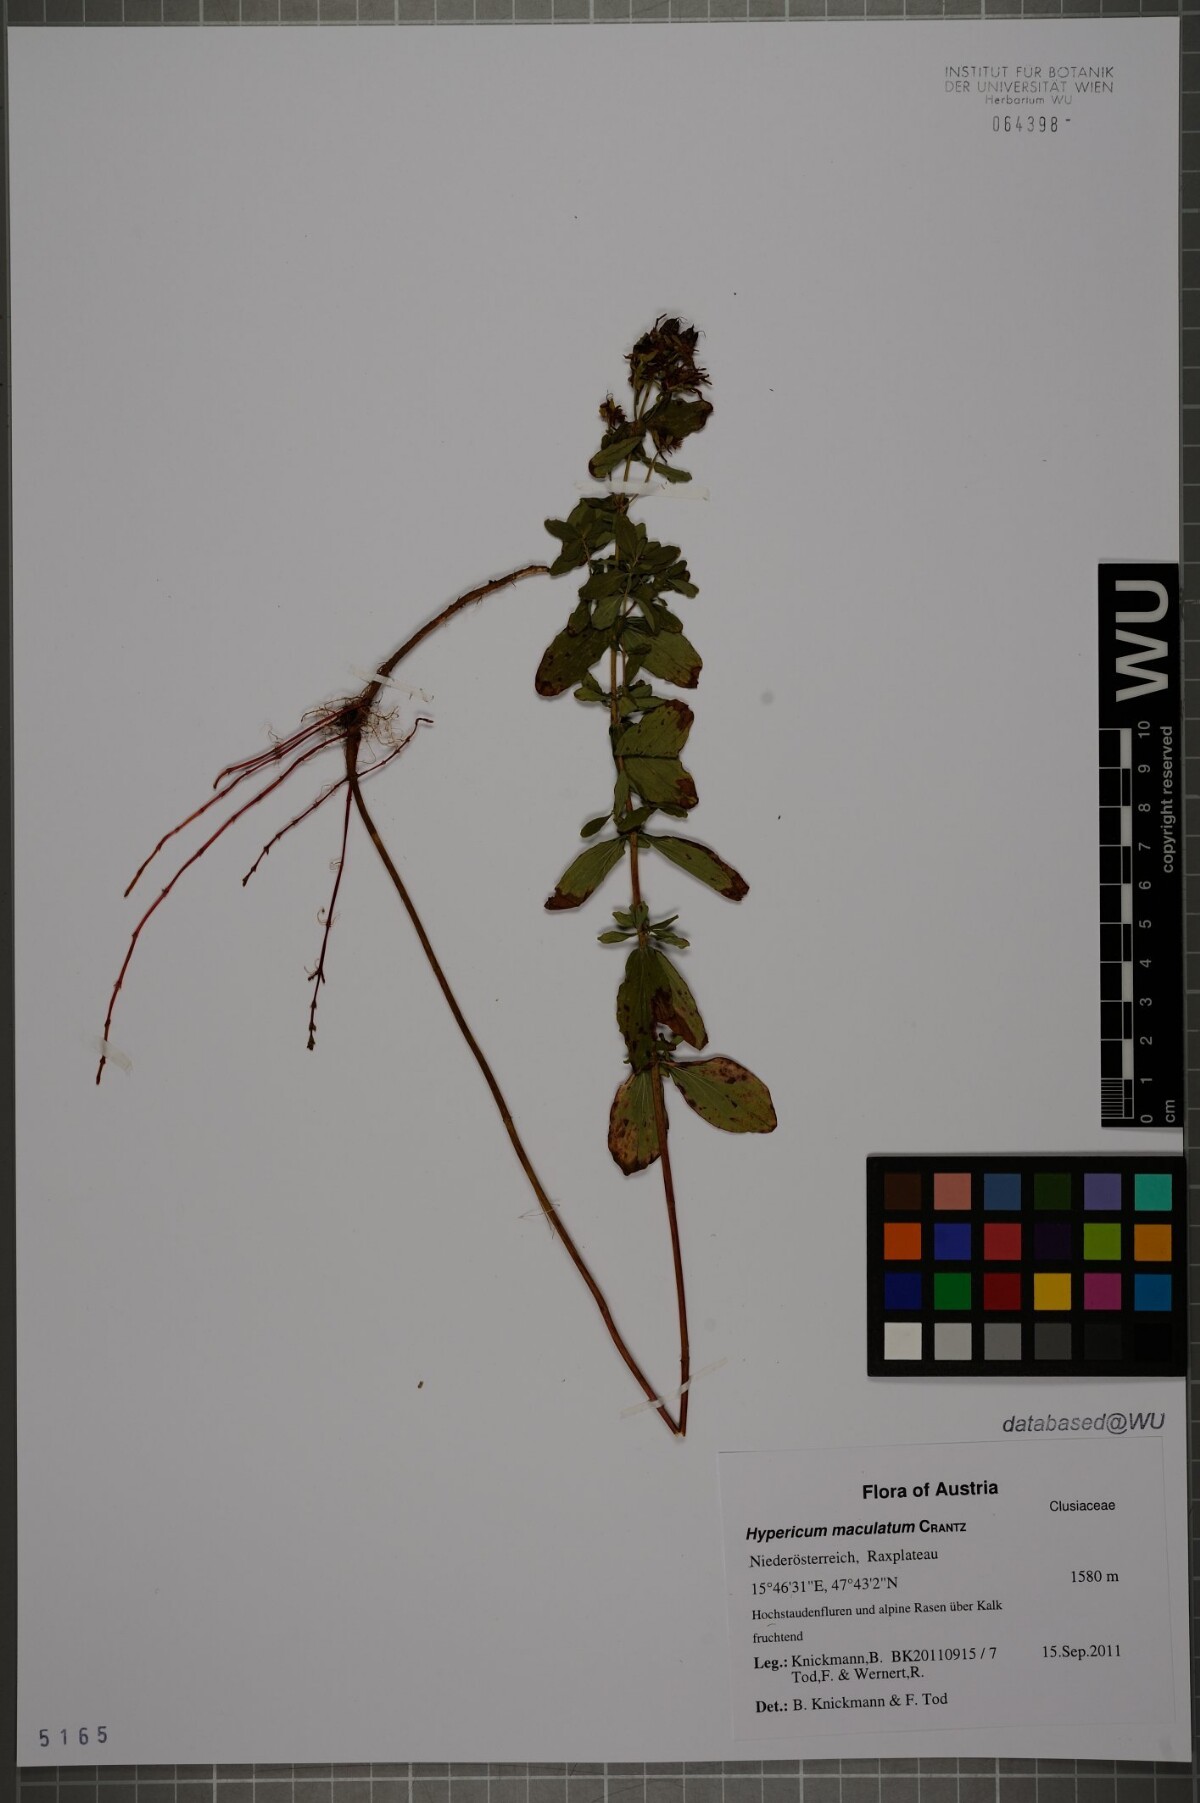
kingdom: Plantae
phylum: Tracheophyta
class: Magnoliopsida
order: Malpighiales
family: Hypericaceae
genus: Hypericum
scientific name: Hypericum maculatum
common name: Imperforate st. john's-wort
